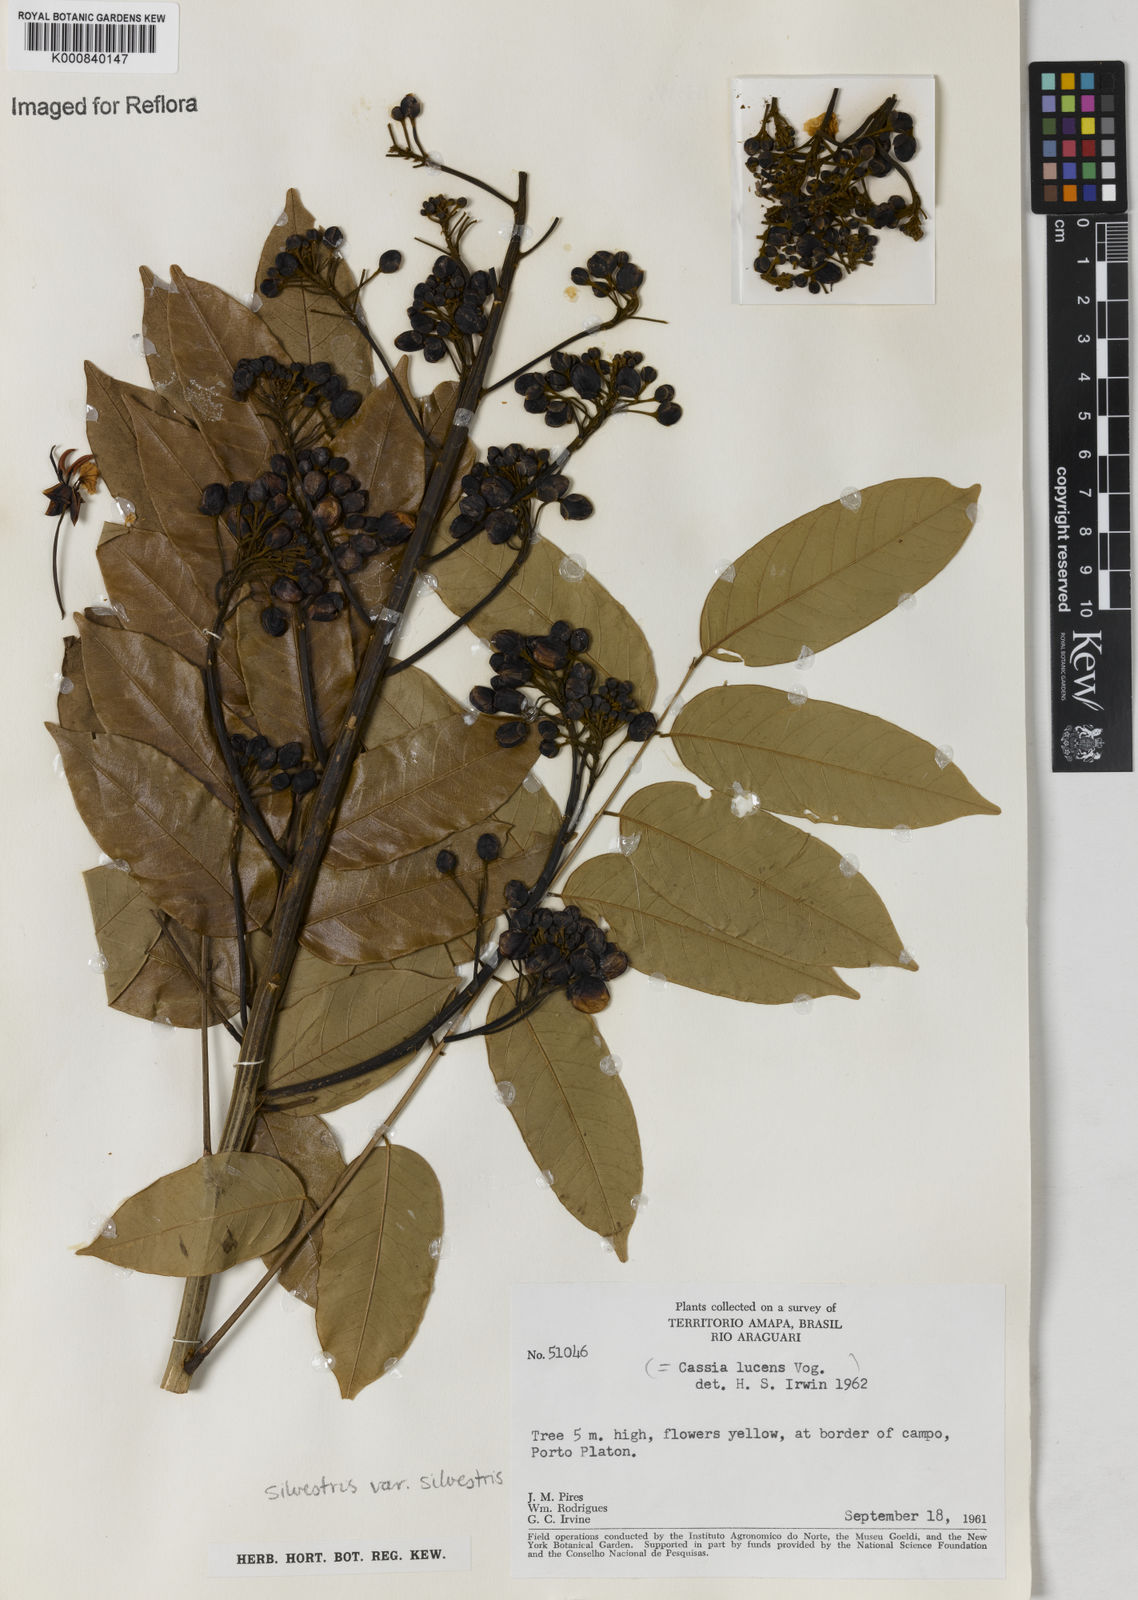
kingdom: Plantae
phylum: Tracheophyta
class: Magnoliopsida
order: Fabales
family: Fabaceae
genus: Senna
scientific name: Senna silvestris
